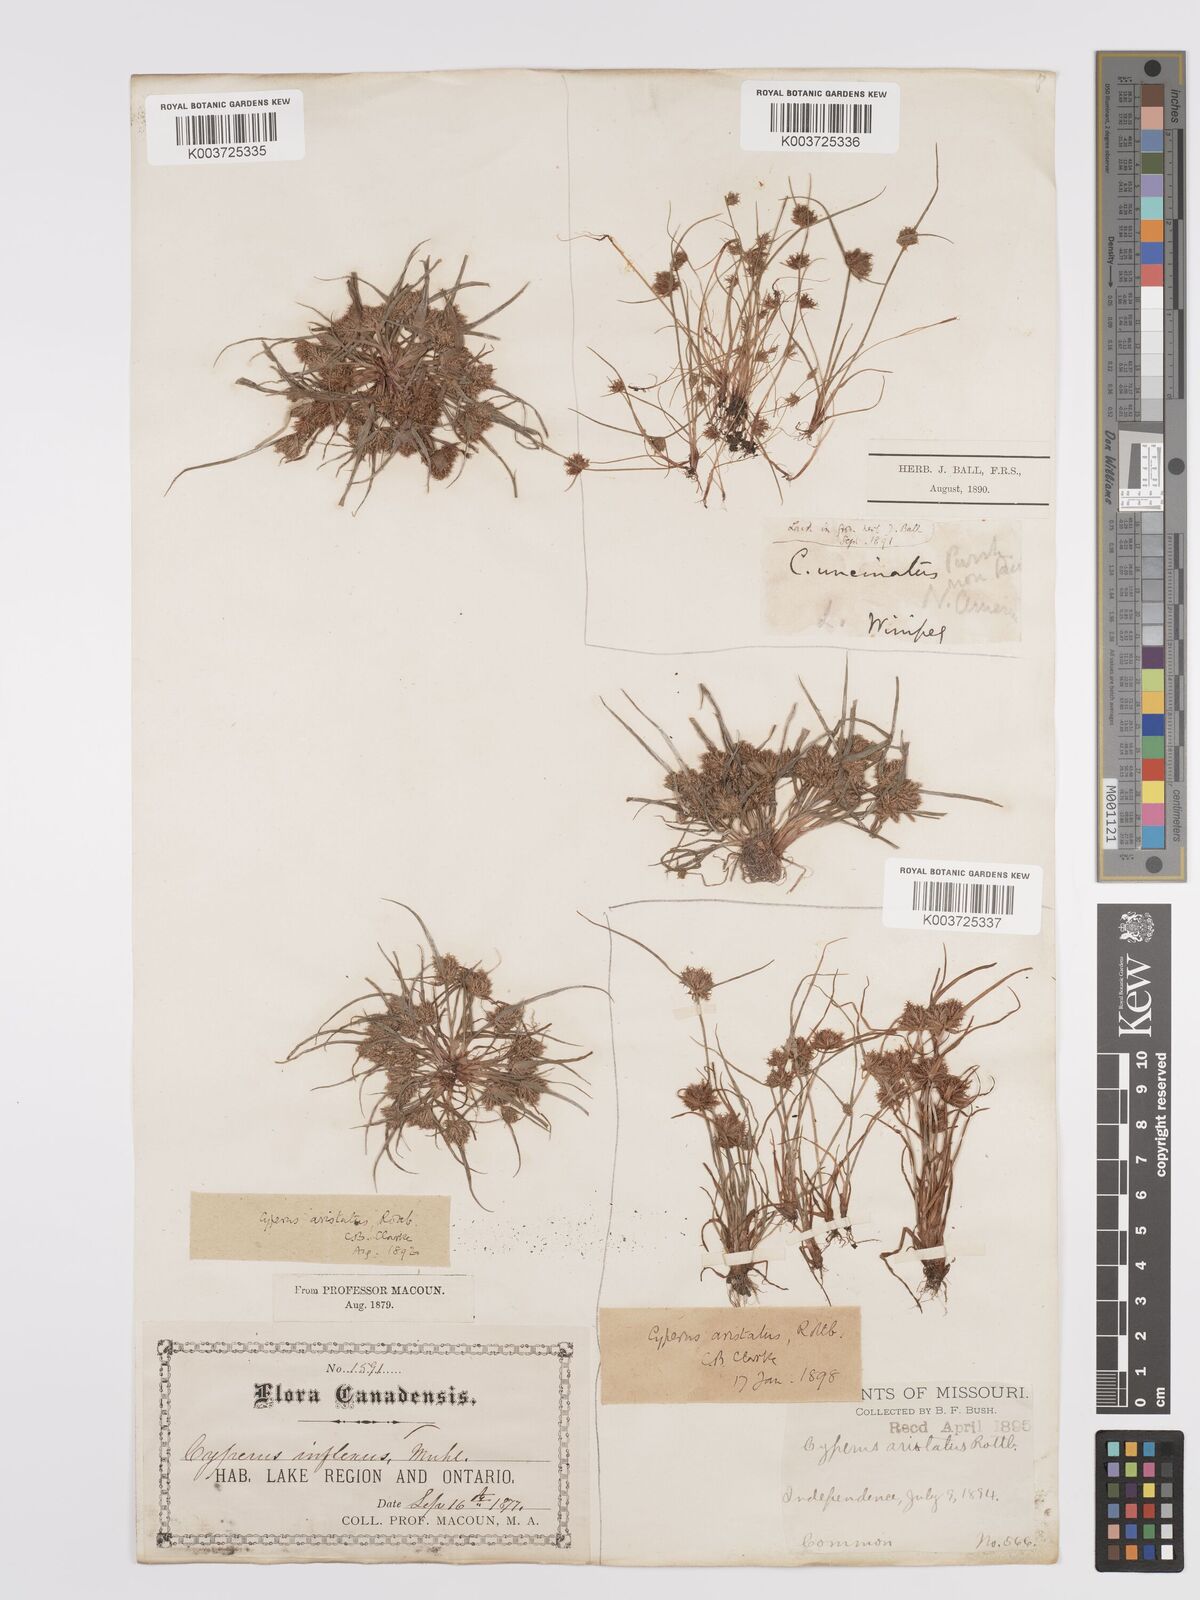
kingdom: Plantae
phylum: Tracheophyta
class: Liliopsida
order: Poales
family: Cyperaceae
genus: Cyperus
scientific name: Cyperus squarrosus
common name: Awned cyperus
